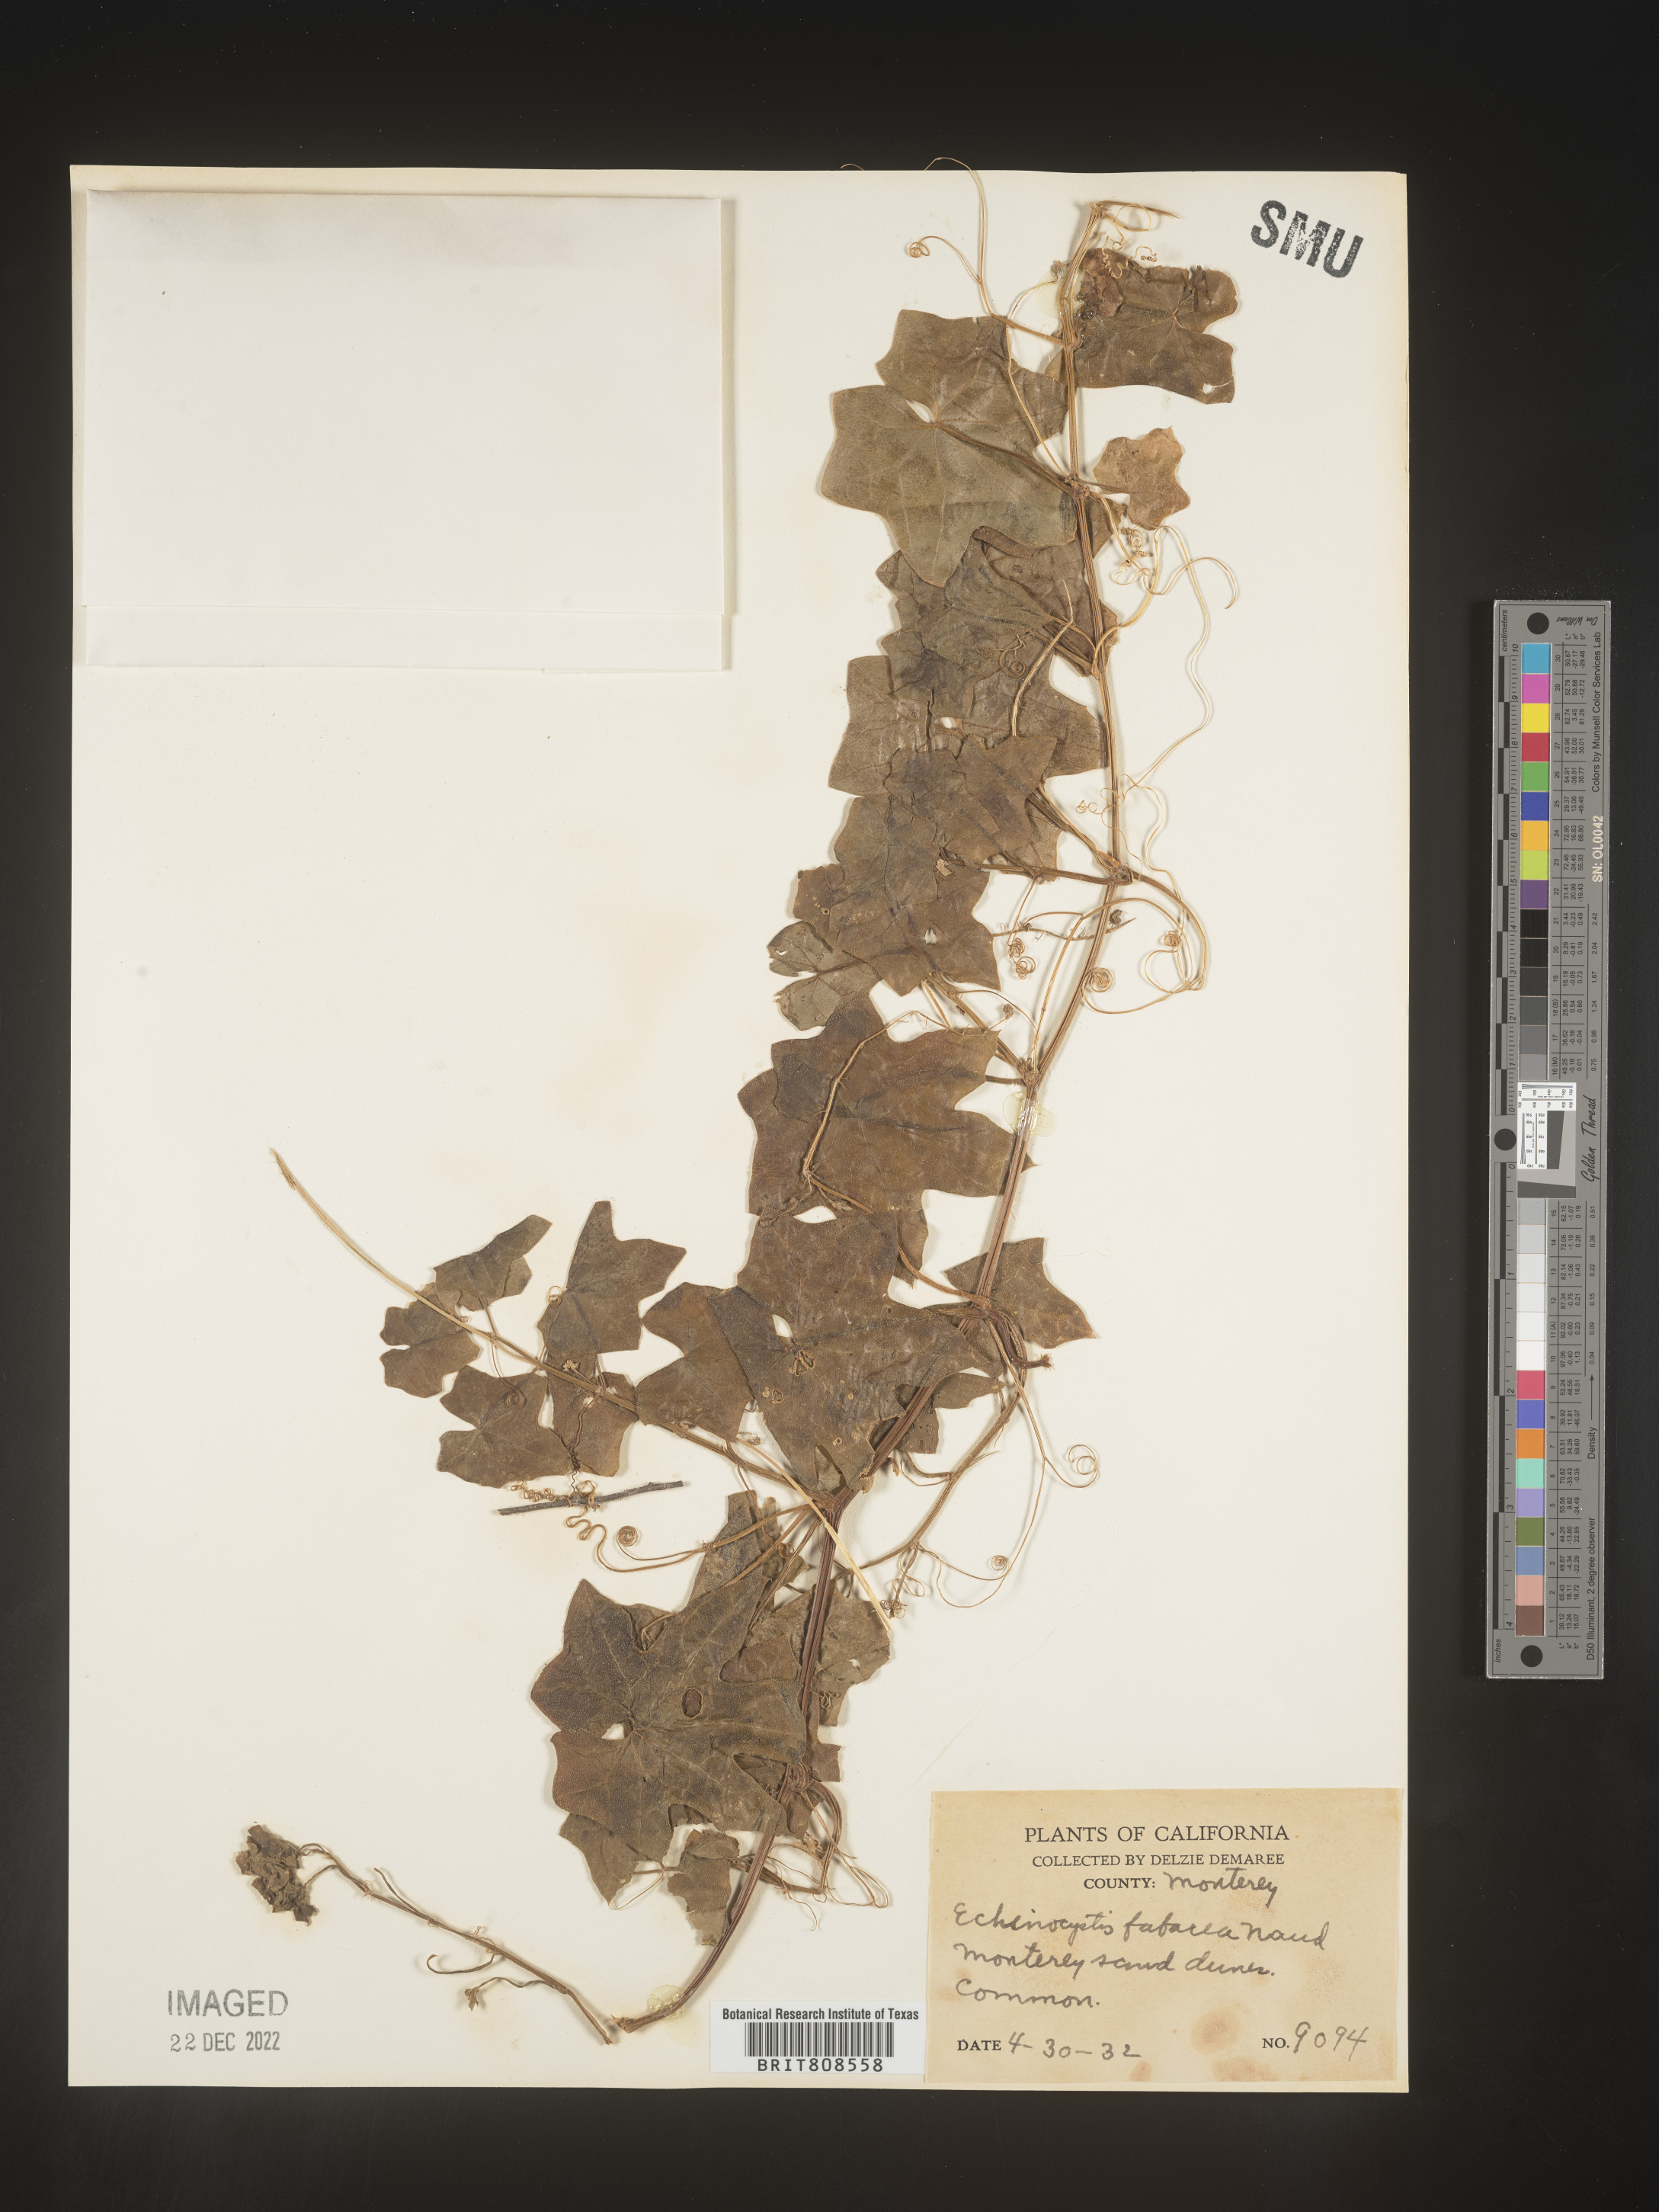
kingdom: Plantae
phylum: Tracheophyta
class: Magnoliopsida
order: Cucurbitales
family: Cucurbitaceae
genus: Marah
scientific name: Marah
